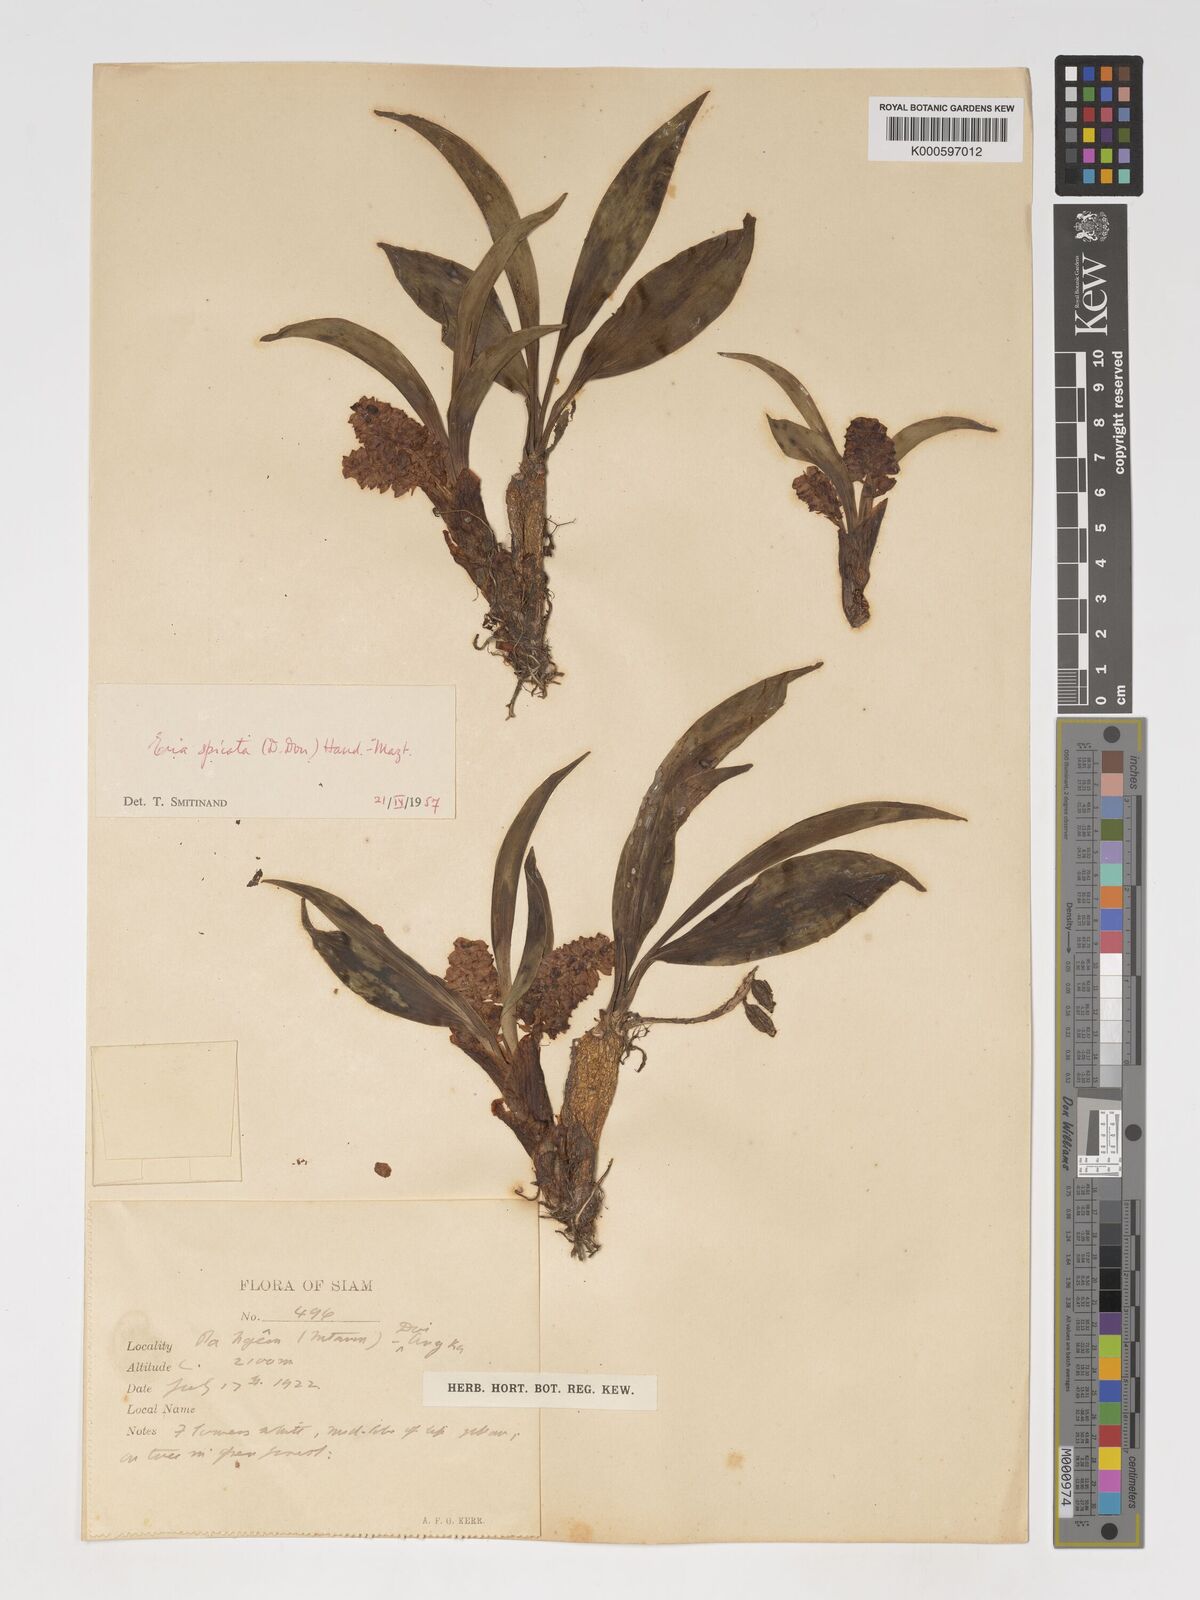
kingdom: Plantae
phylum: Tracheophyta
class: Liliopsida
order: Asparagales
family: Orchidaceae
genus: Pinalia
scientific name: Pinalia spicata
